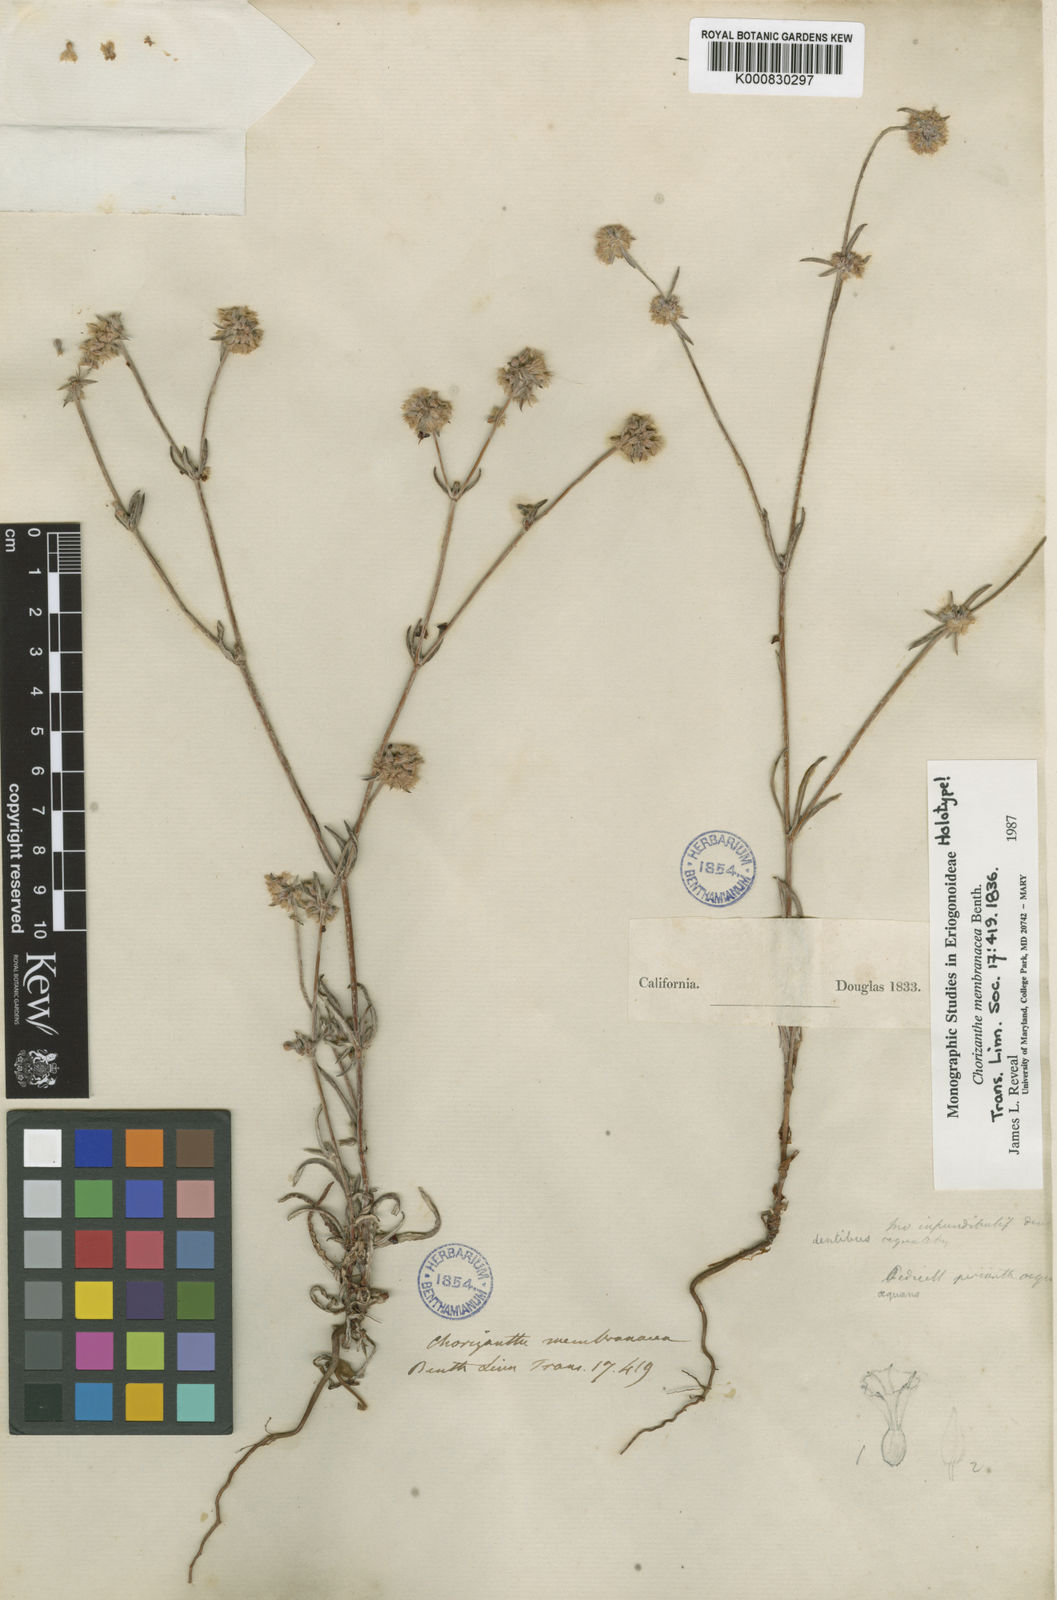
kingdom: Plantae
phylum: Tracheophyta
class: Magnoliopsida
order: Caryophyllales
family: Polygonaceae
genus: Chorizanthe
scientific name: Chorizanthe membranacea
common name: Pink spineflower
